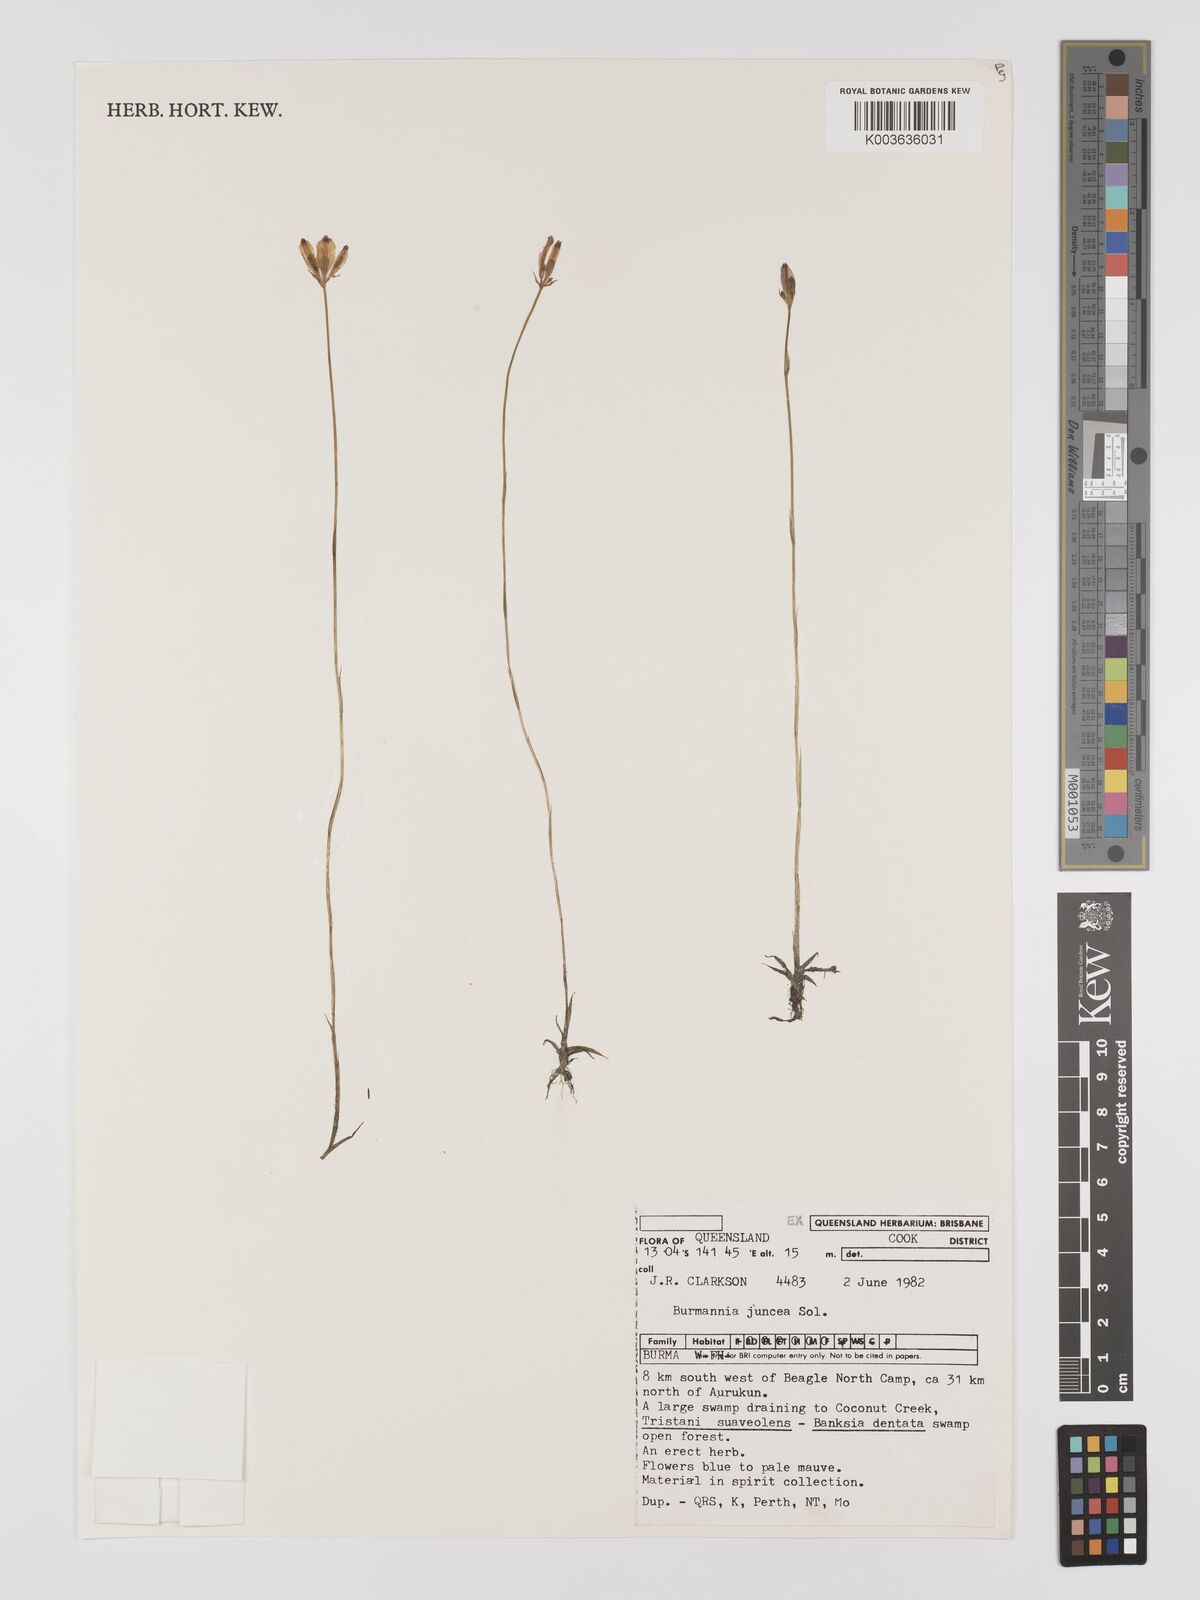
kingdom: Plantae
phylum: Tracheophyta
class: Liliopsida
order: Dioscoreales
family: Burmanniaceae
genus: Burmannia
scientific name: Burmannia juncea
